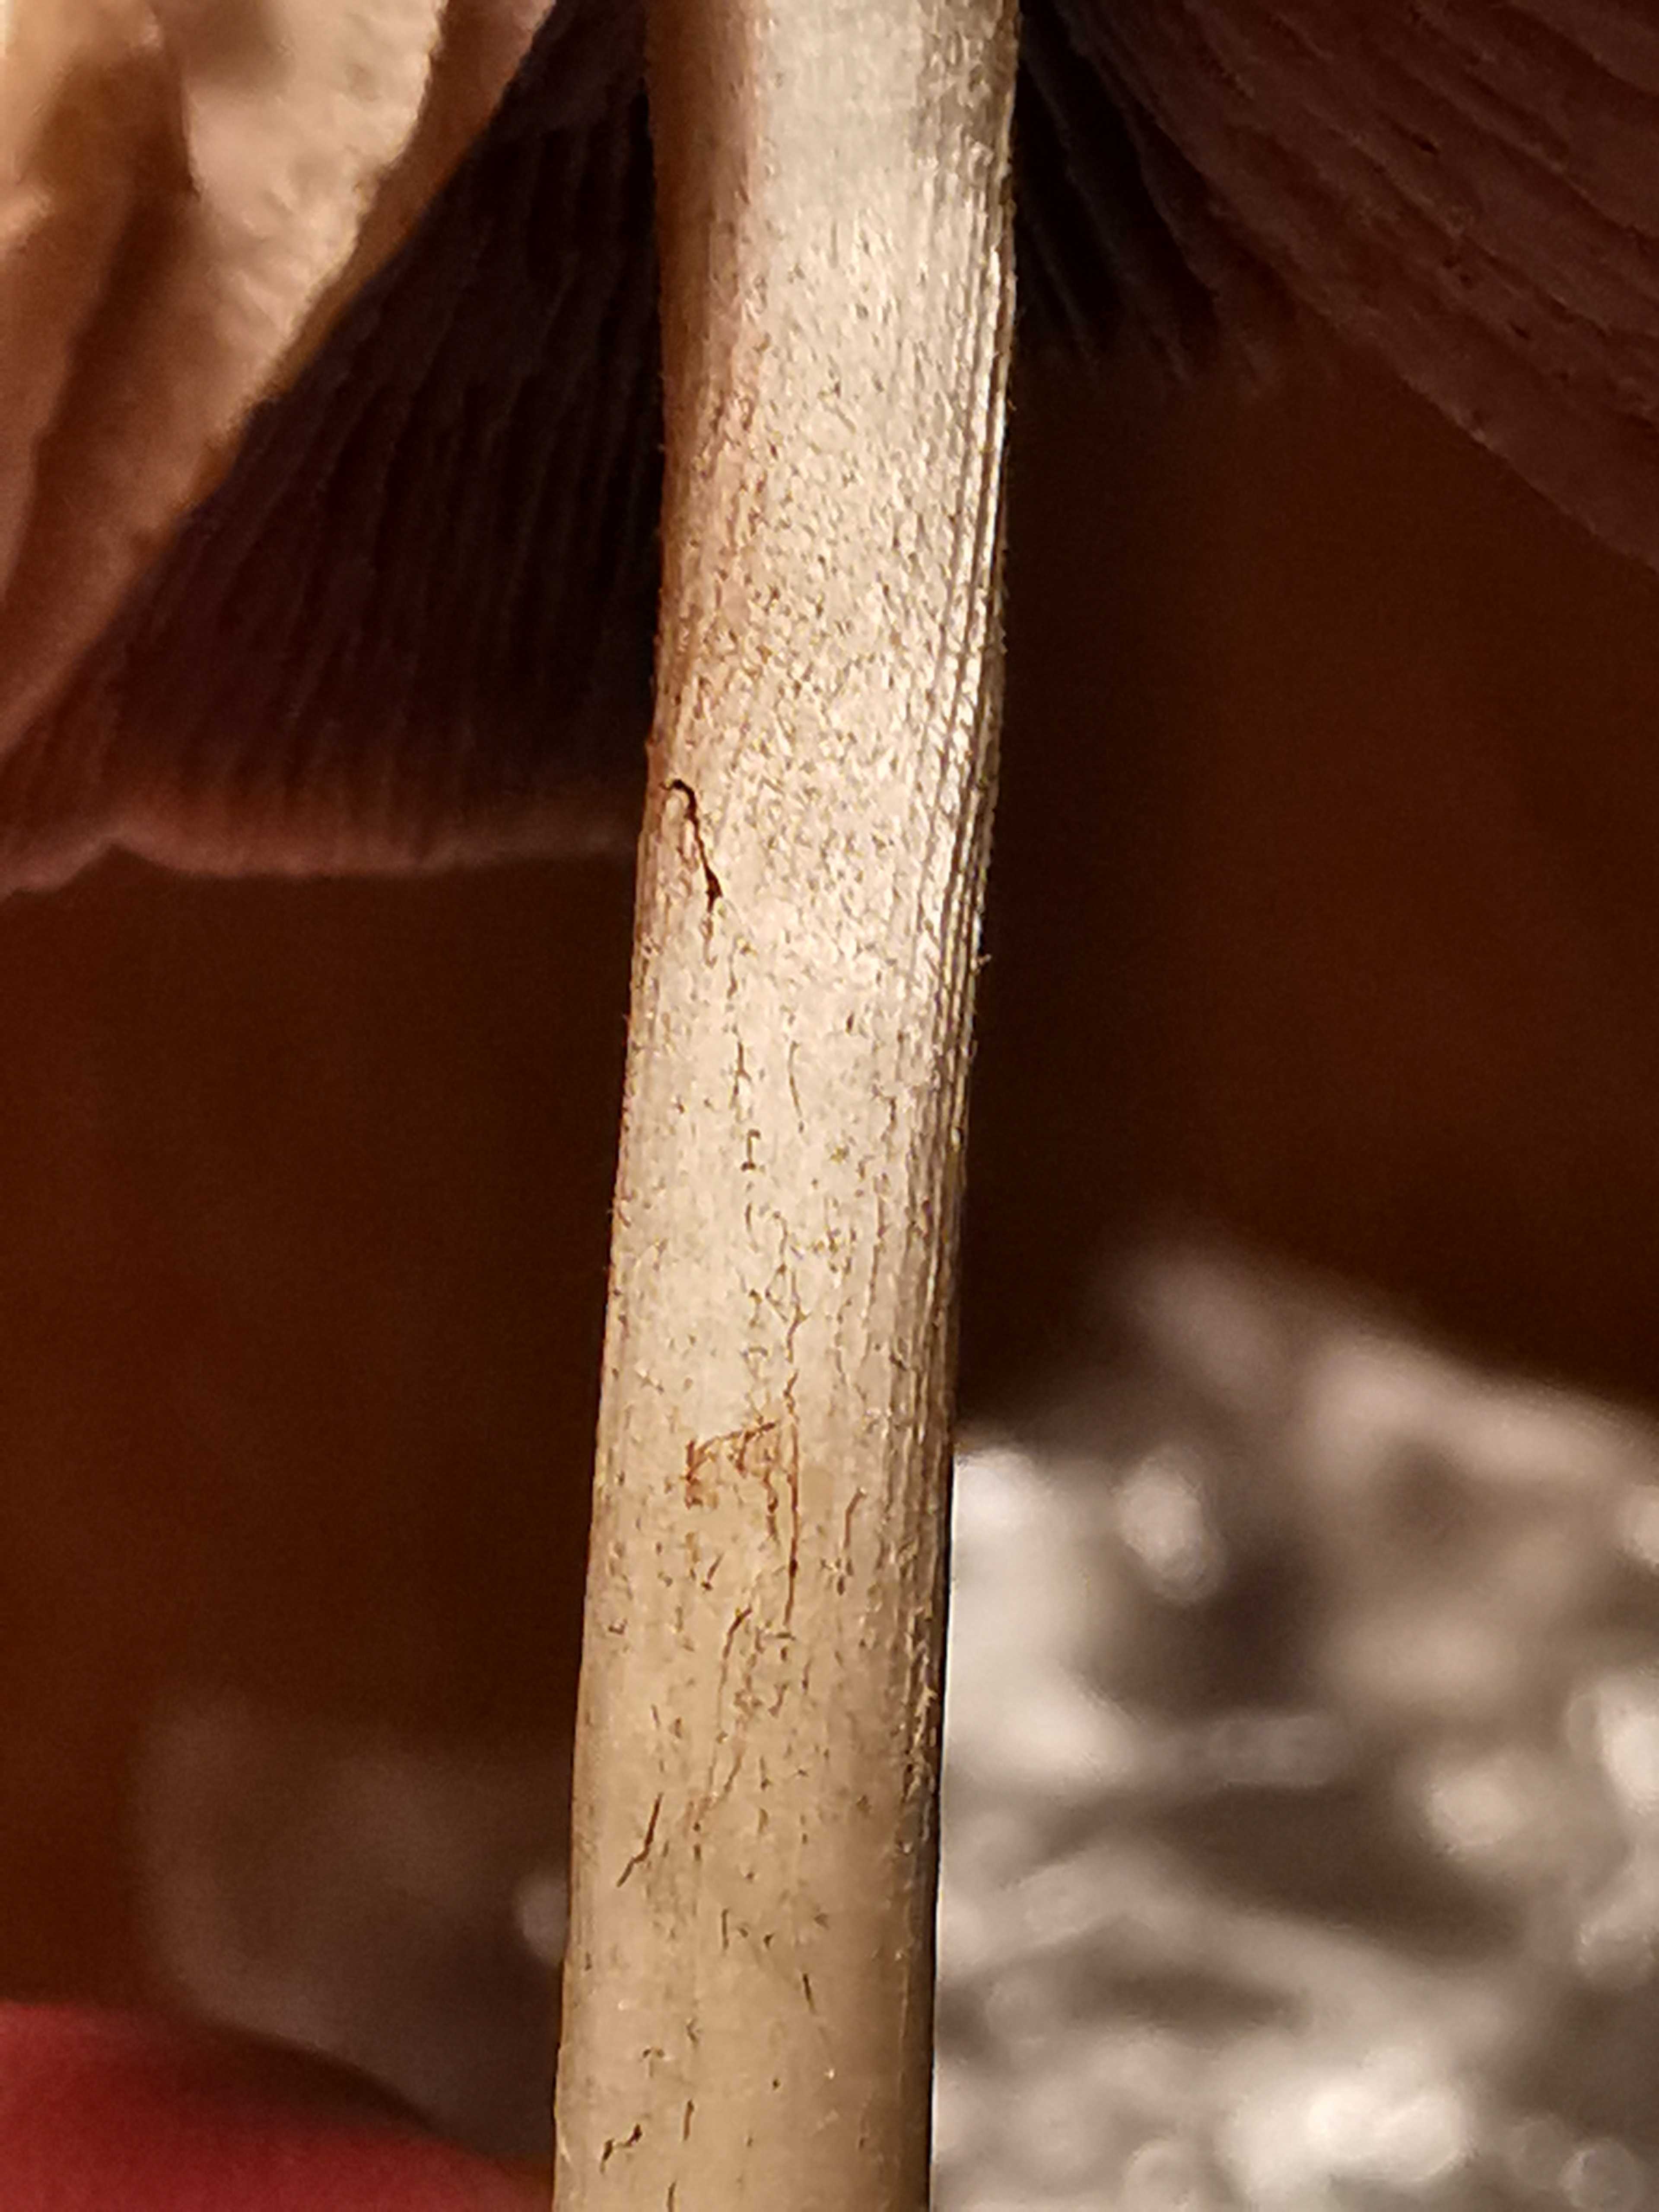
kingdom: Fungi
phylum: Basidiomycota
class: Agaricomycetes
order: Agaricales
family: Psathyrellaceae
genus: Candolleomyces
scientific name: Candolleomyces candolleanus
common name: Candolles mørkhat
